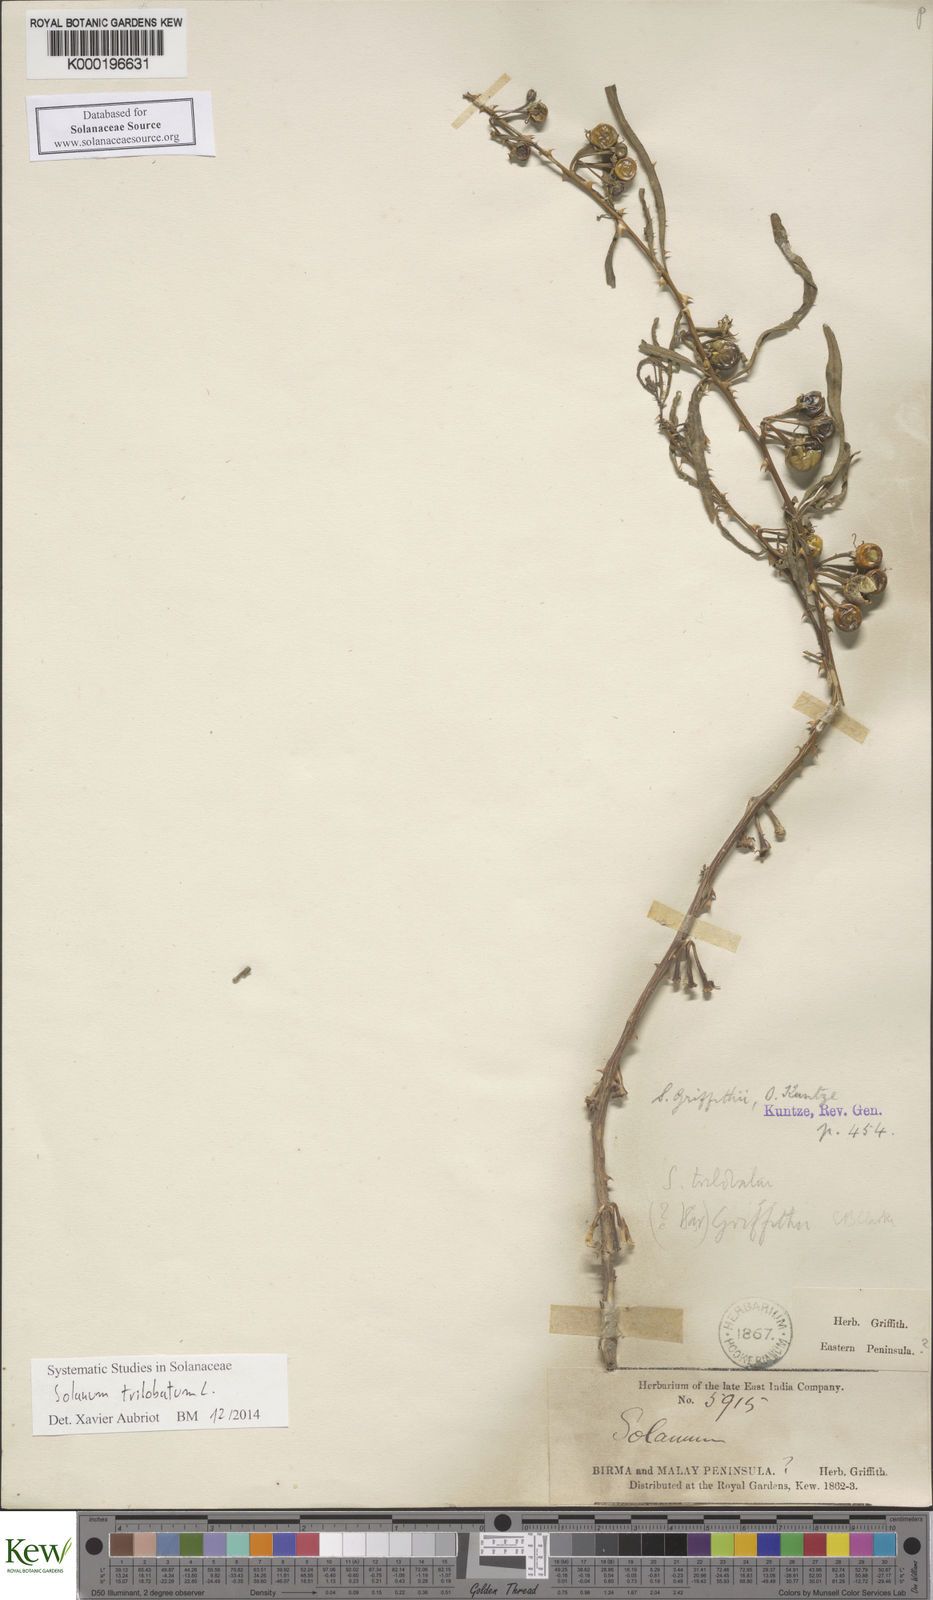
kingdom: Plantae
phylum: Tracheophyta
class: Magnoliopsida
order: Solanales
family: Solanaceae
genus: Solanum
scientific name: Solanum procumbens
